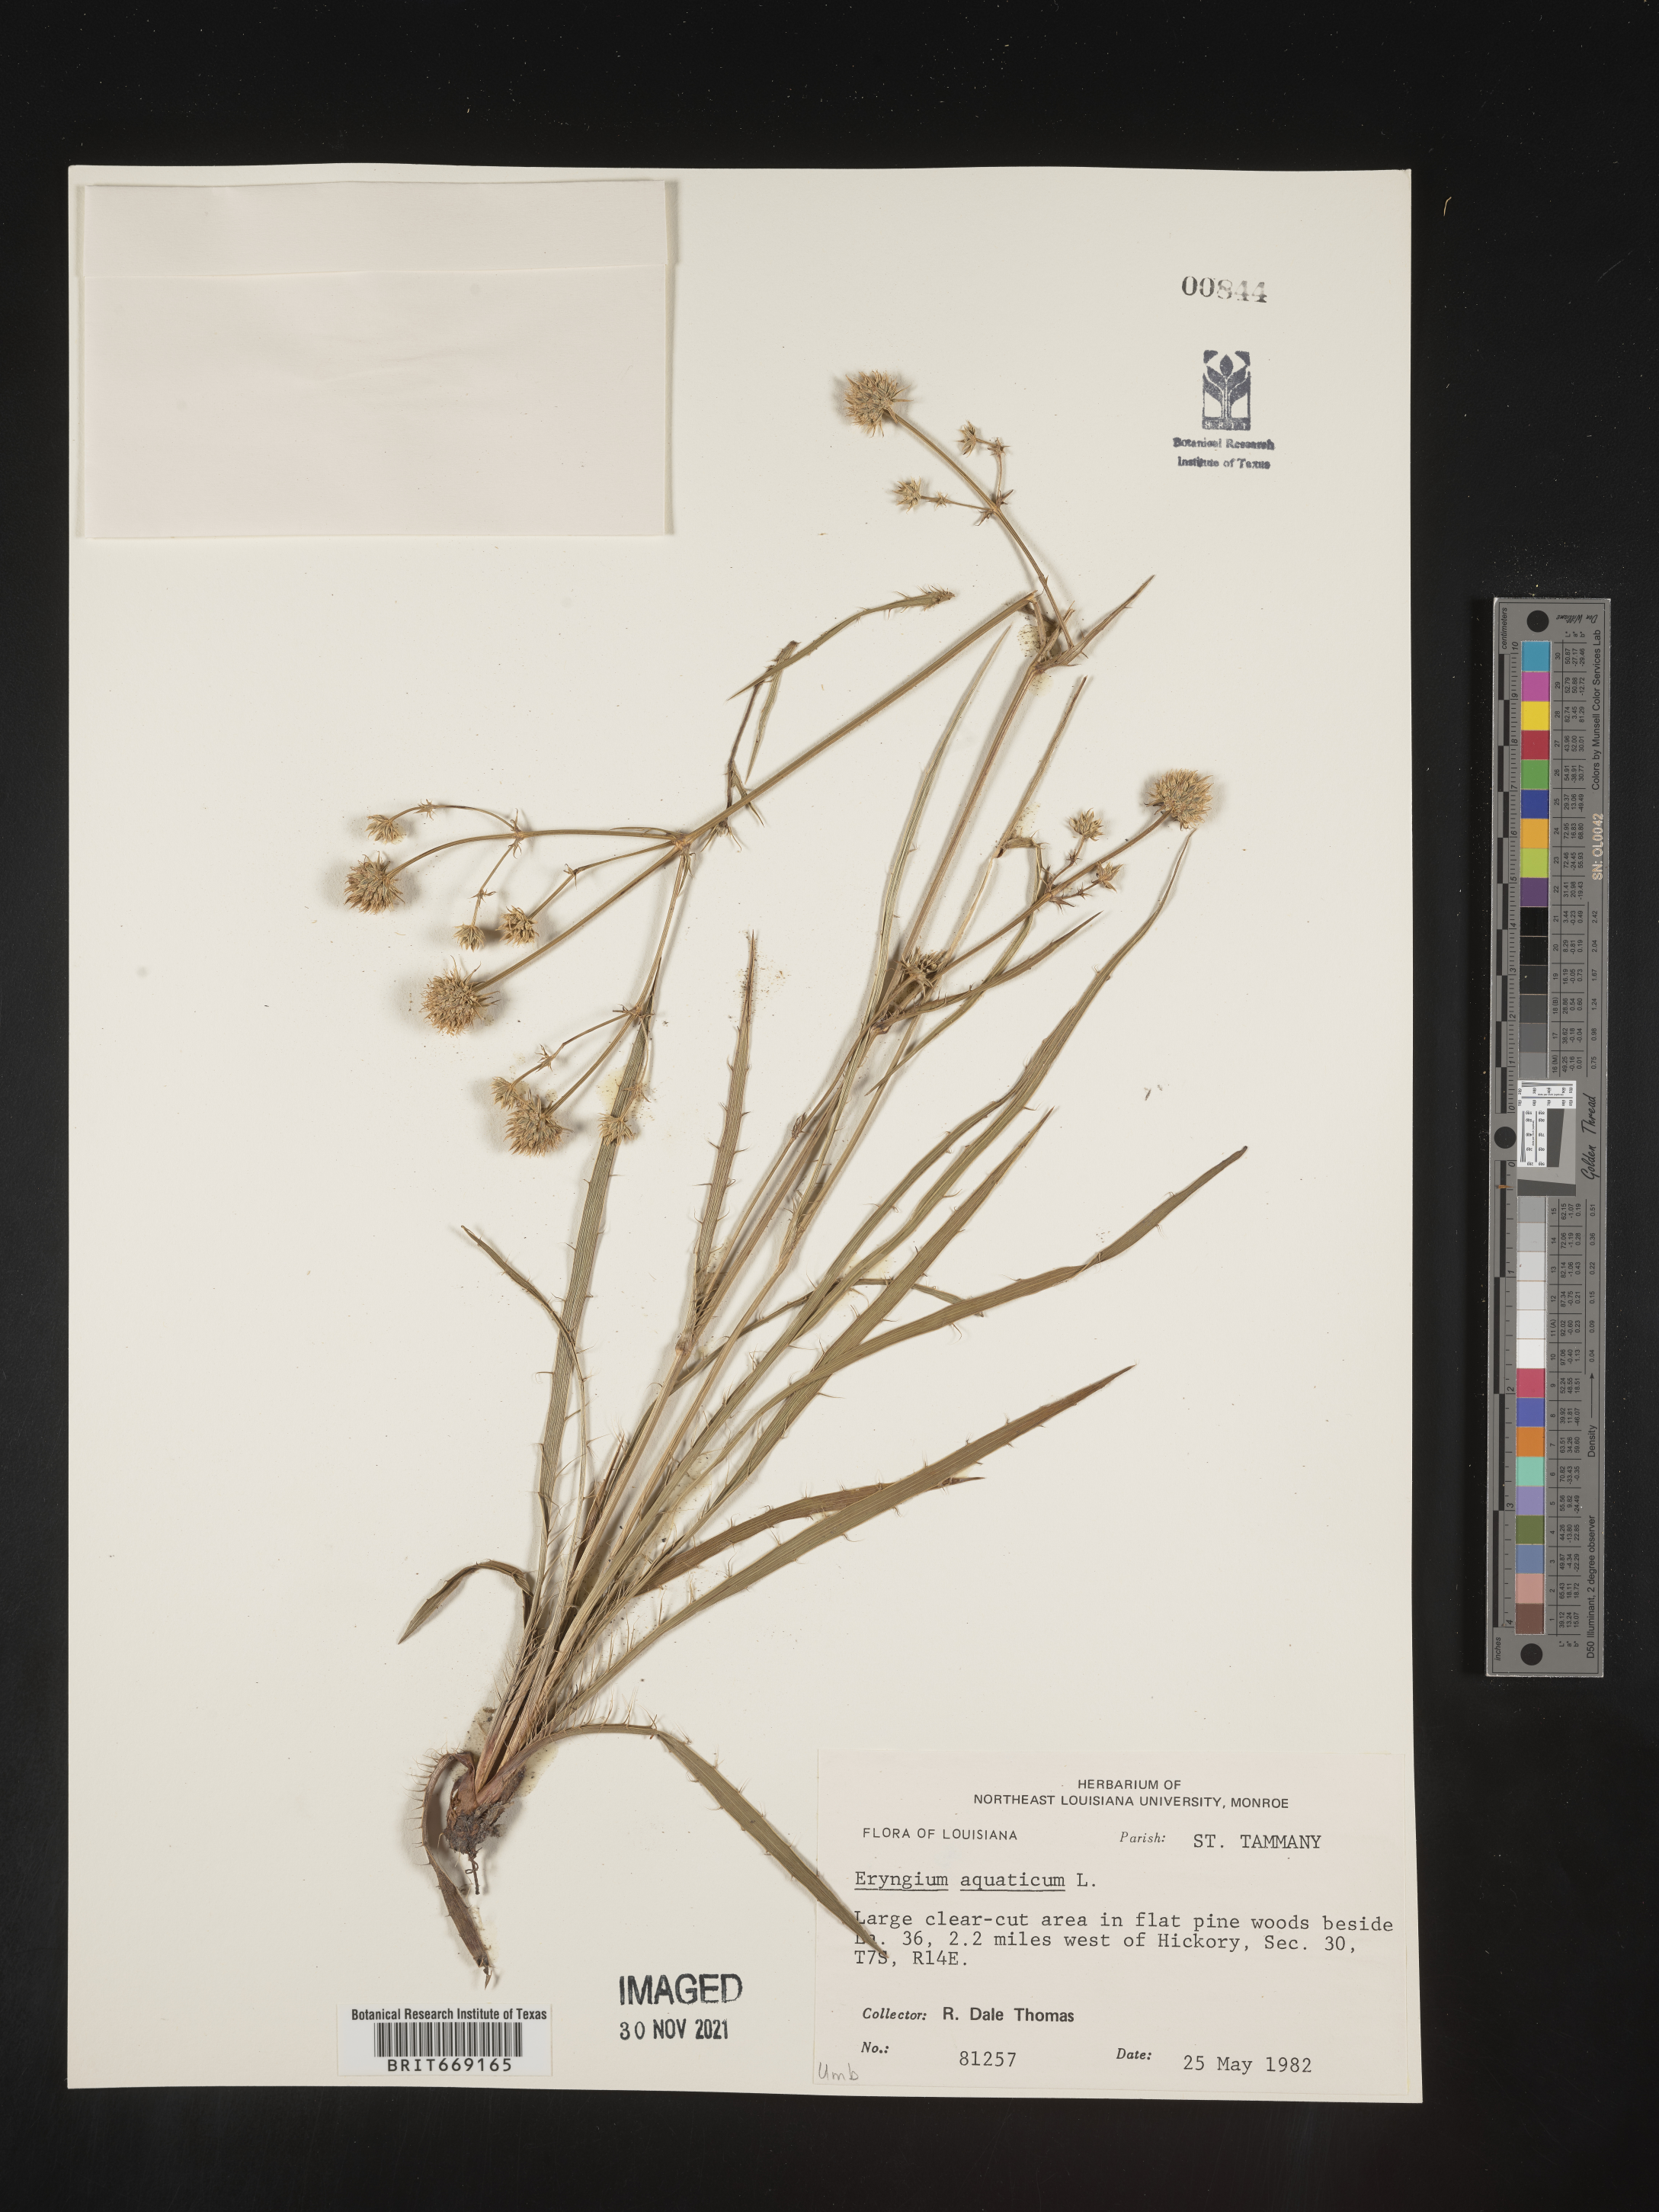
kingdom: Plantae
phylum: Tracheophyta
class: Magnoliopsida
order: Apiales
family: Apiaceae
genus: Eryngium
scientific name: Eryngium aquaticum
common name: Water eryngo
